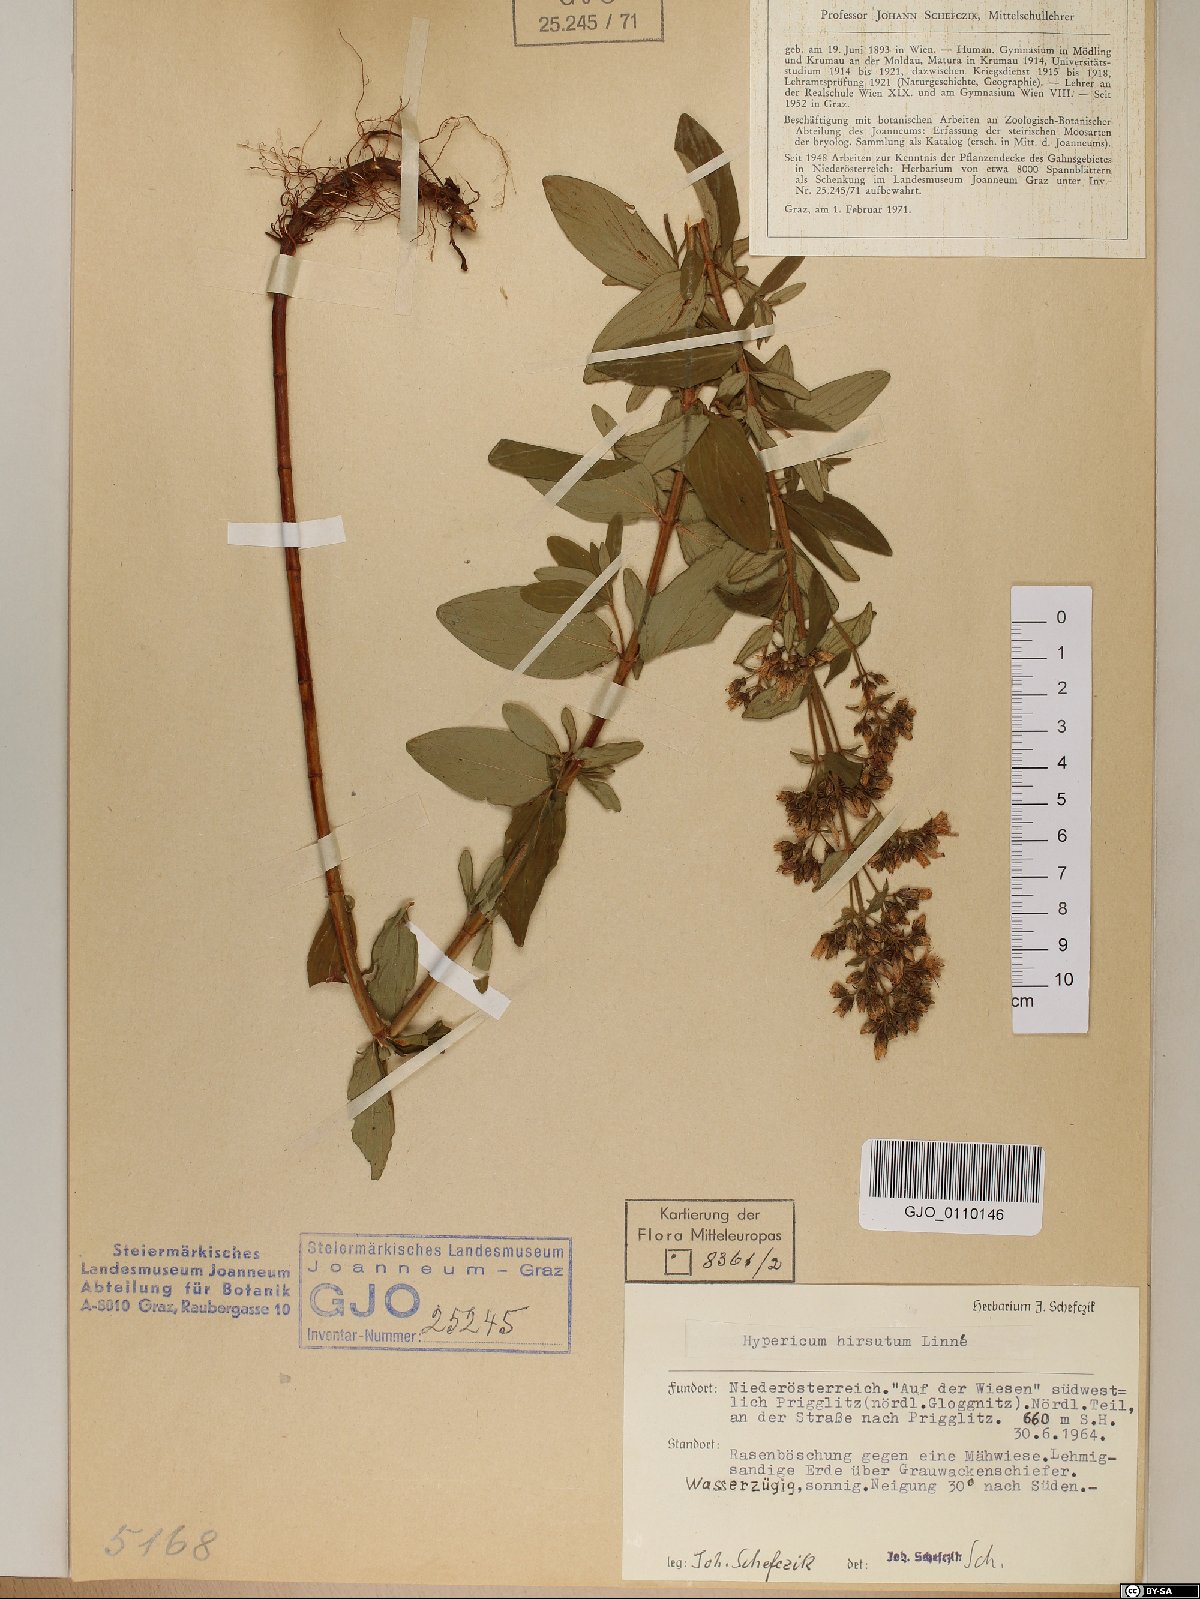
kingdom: Plantae
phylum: Tracheophyta
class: Magnoliopsida
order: Malpighiales
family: Hypericaceae
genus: Hypericum
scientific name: Hypericum hirsutum
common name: Hairy st. john's-wort
